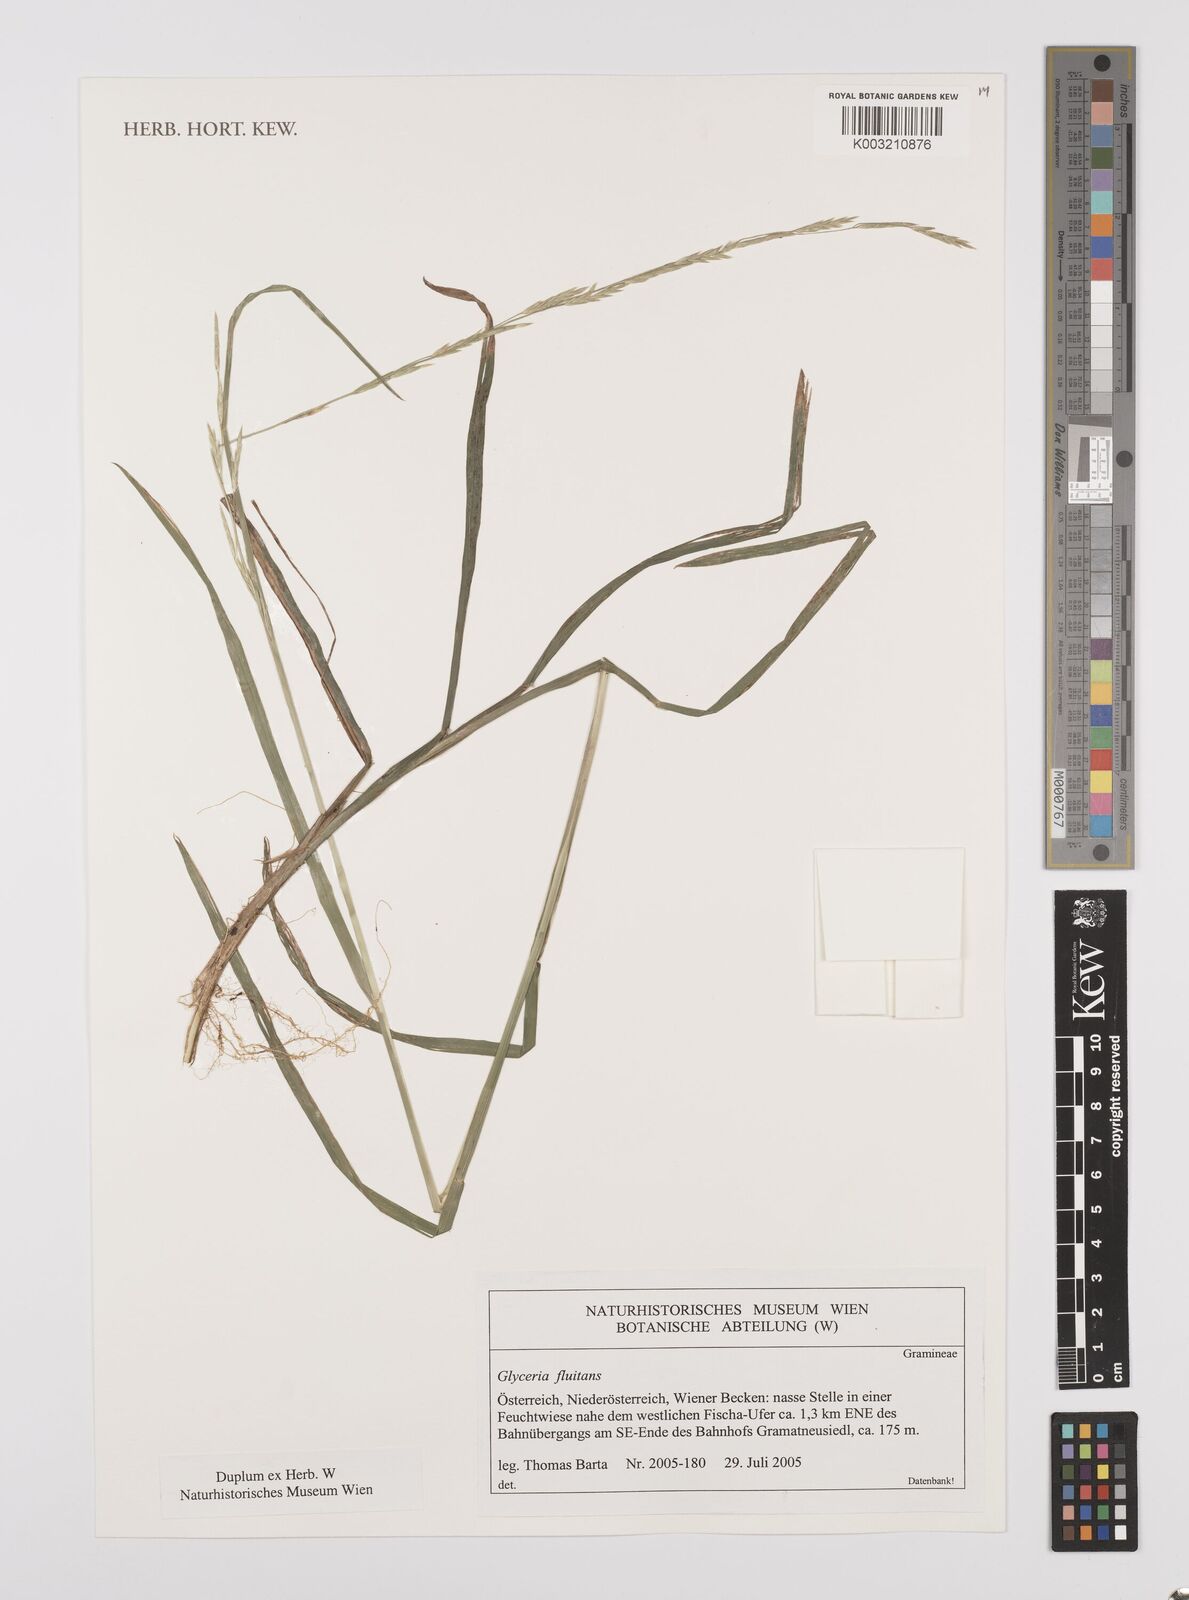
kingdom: Plantae
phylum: Tracheophyta
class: Liliopsida
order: Poales
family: Poaceae
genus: Glyceria
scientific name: Glyceria fluitans
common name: Floating sweet-grass
